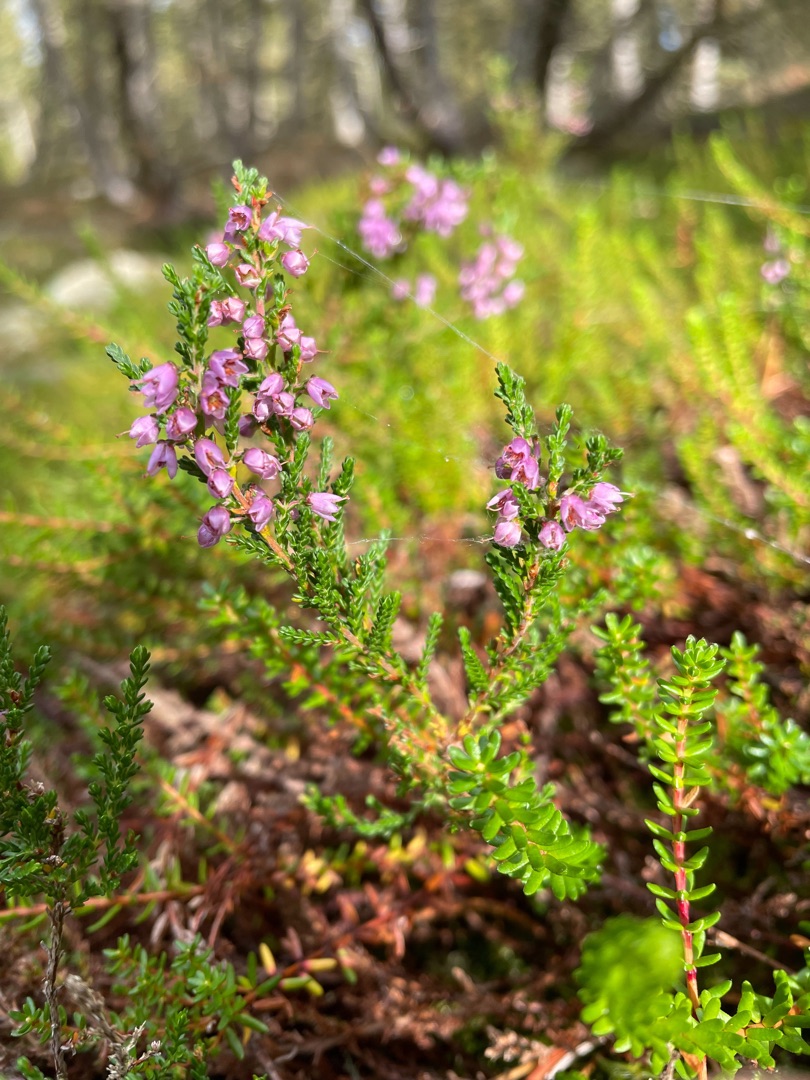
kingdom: Plantae
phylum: Tracheophyta
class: Magnoliopsida
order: Ericales
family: Ericaceae
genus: Calluna
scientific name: Calluna vulgaris
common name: Hedelyng
